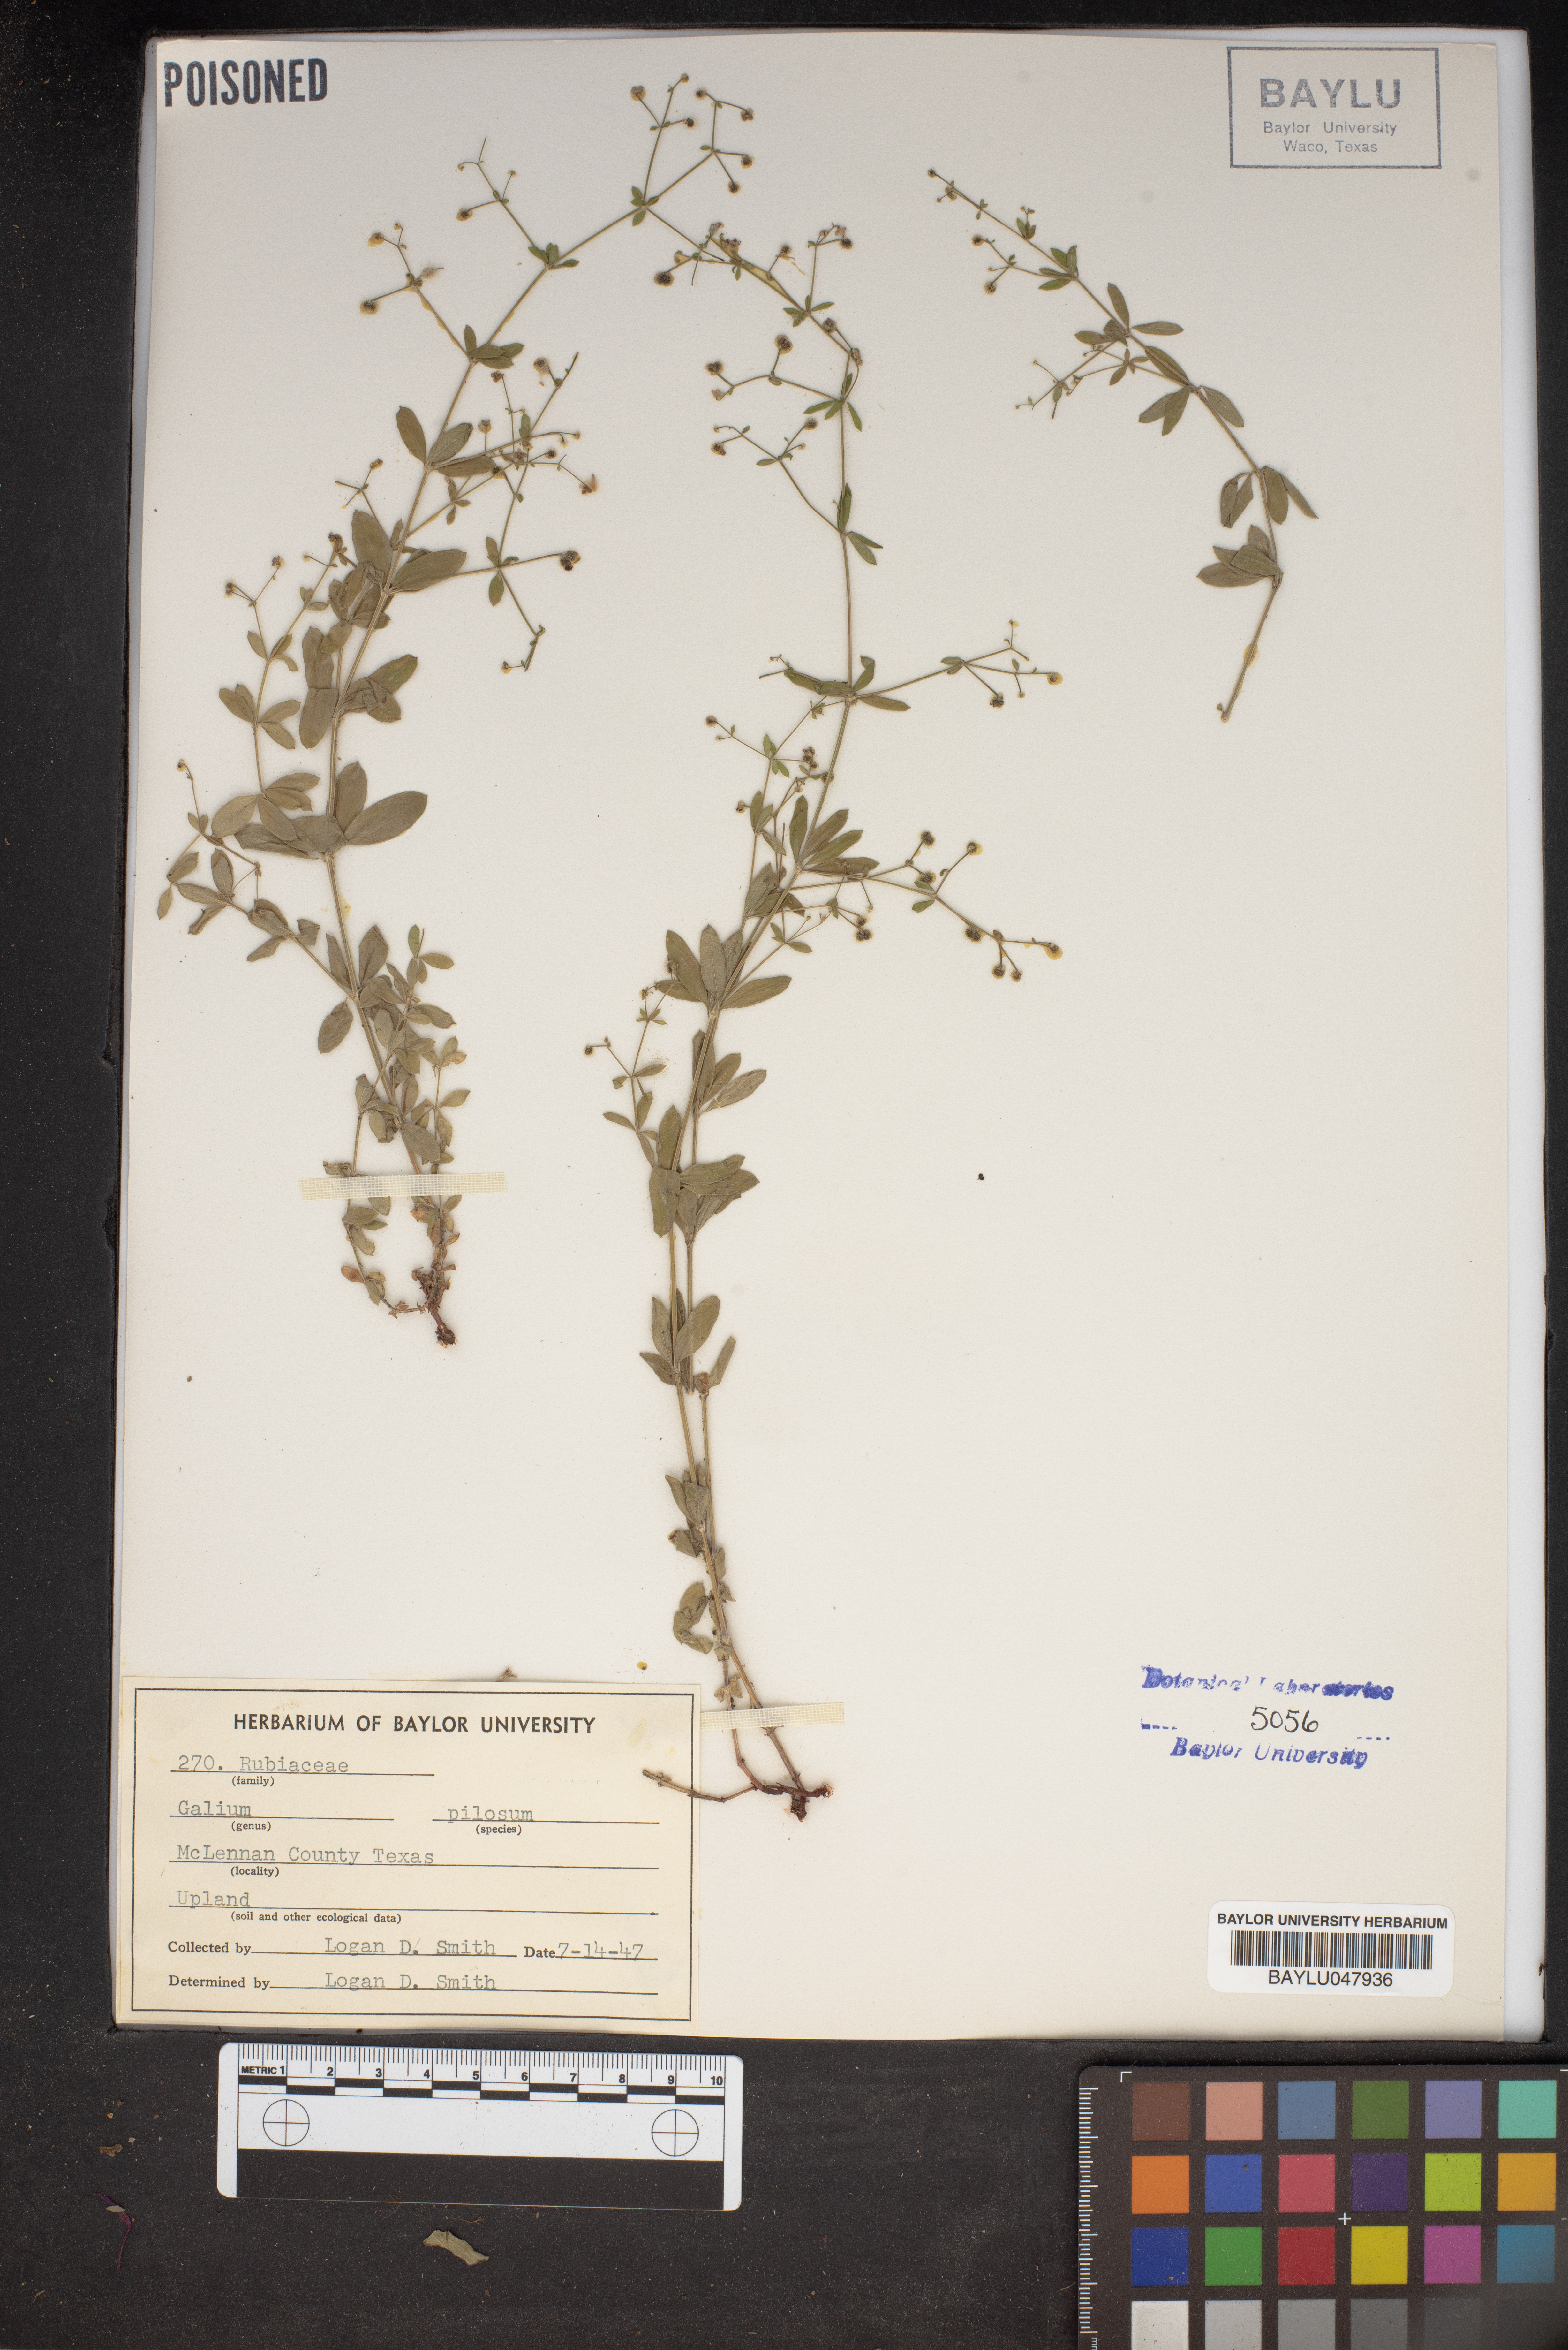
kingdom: Plantae
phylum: Tracheophyta
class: Magnoliopsida
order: Gentianales
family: Rubiaceae
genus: Galium
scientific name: Galium pilosum
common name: Hairy bedstraw
